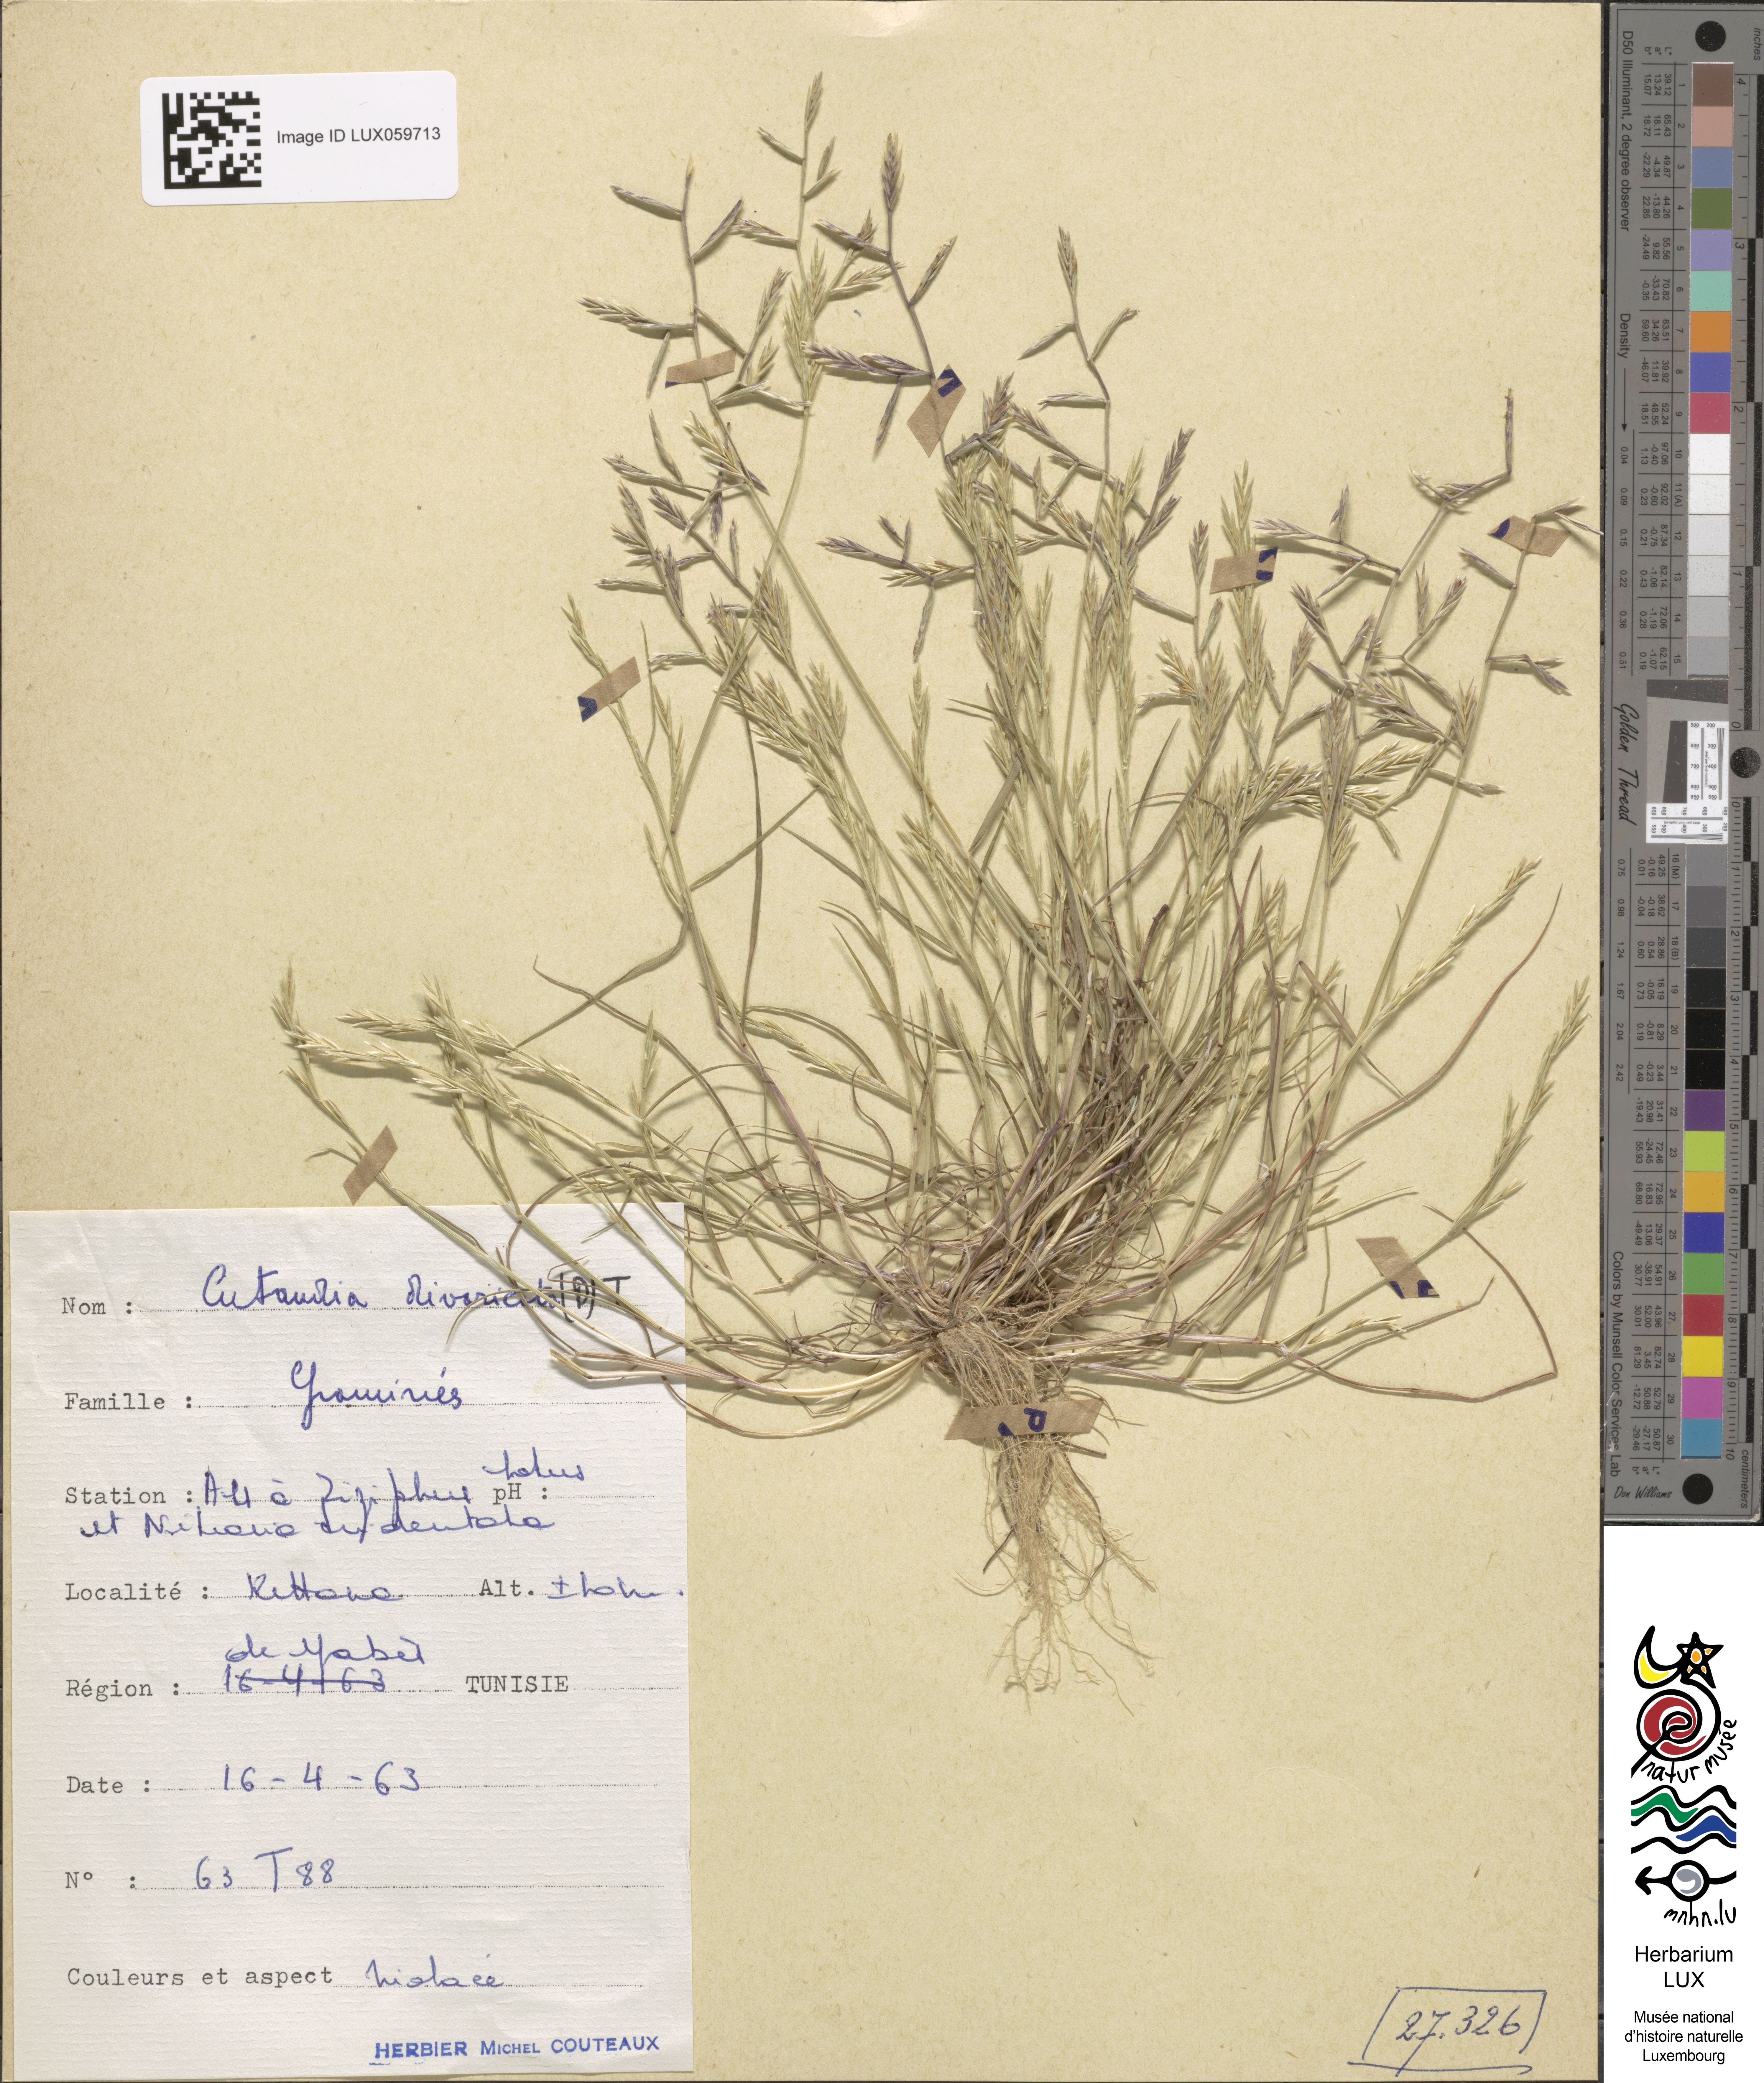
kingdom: Plantae
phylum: Tracheophyta
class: Liliopsida
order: Poales
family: Poaceae
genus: Cutandia
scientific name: Cutandia divaricata
